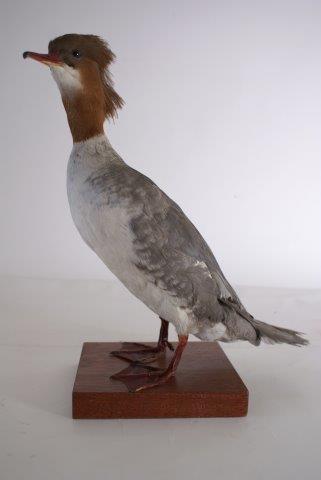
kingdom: Animalia
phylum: Chordata
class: Aves
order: Anseriformes
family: Anatidae
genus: Mergus
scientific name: Mergus merganser
